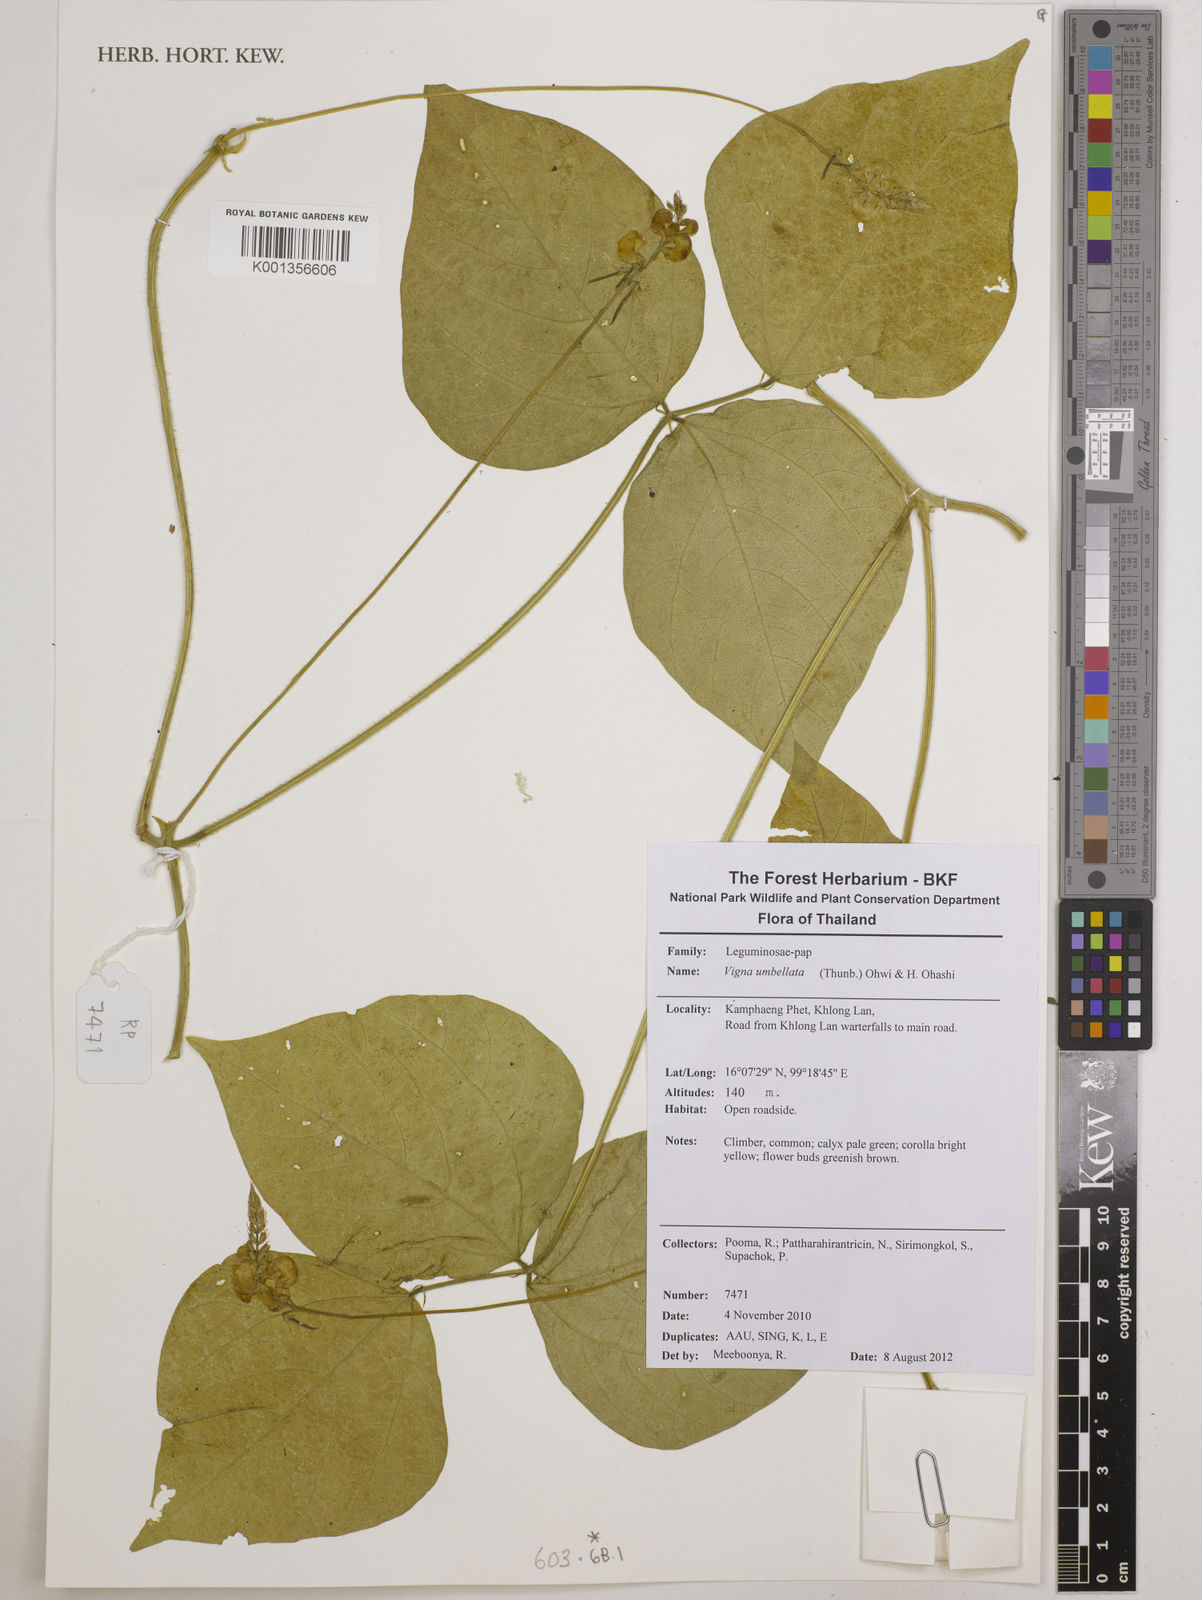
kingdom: Plantae
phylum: Tracheophyta
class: Magnoliopsida
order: Fabales
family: Fabaceae
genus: Vigna
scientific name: Vigna umbellata
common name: Oriental-bean
